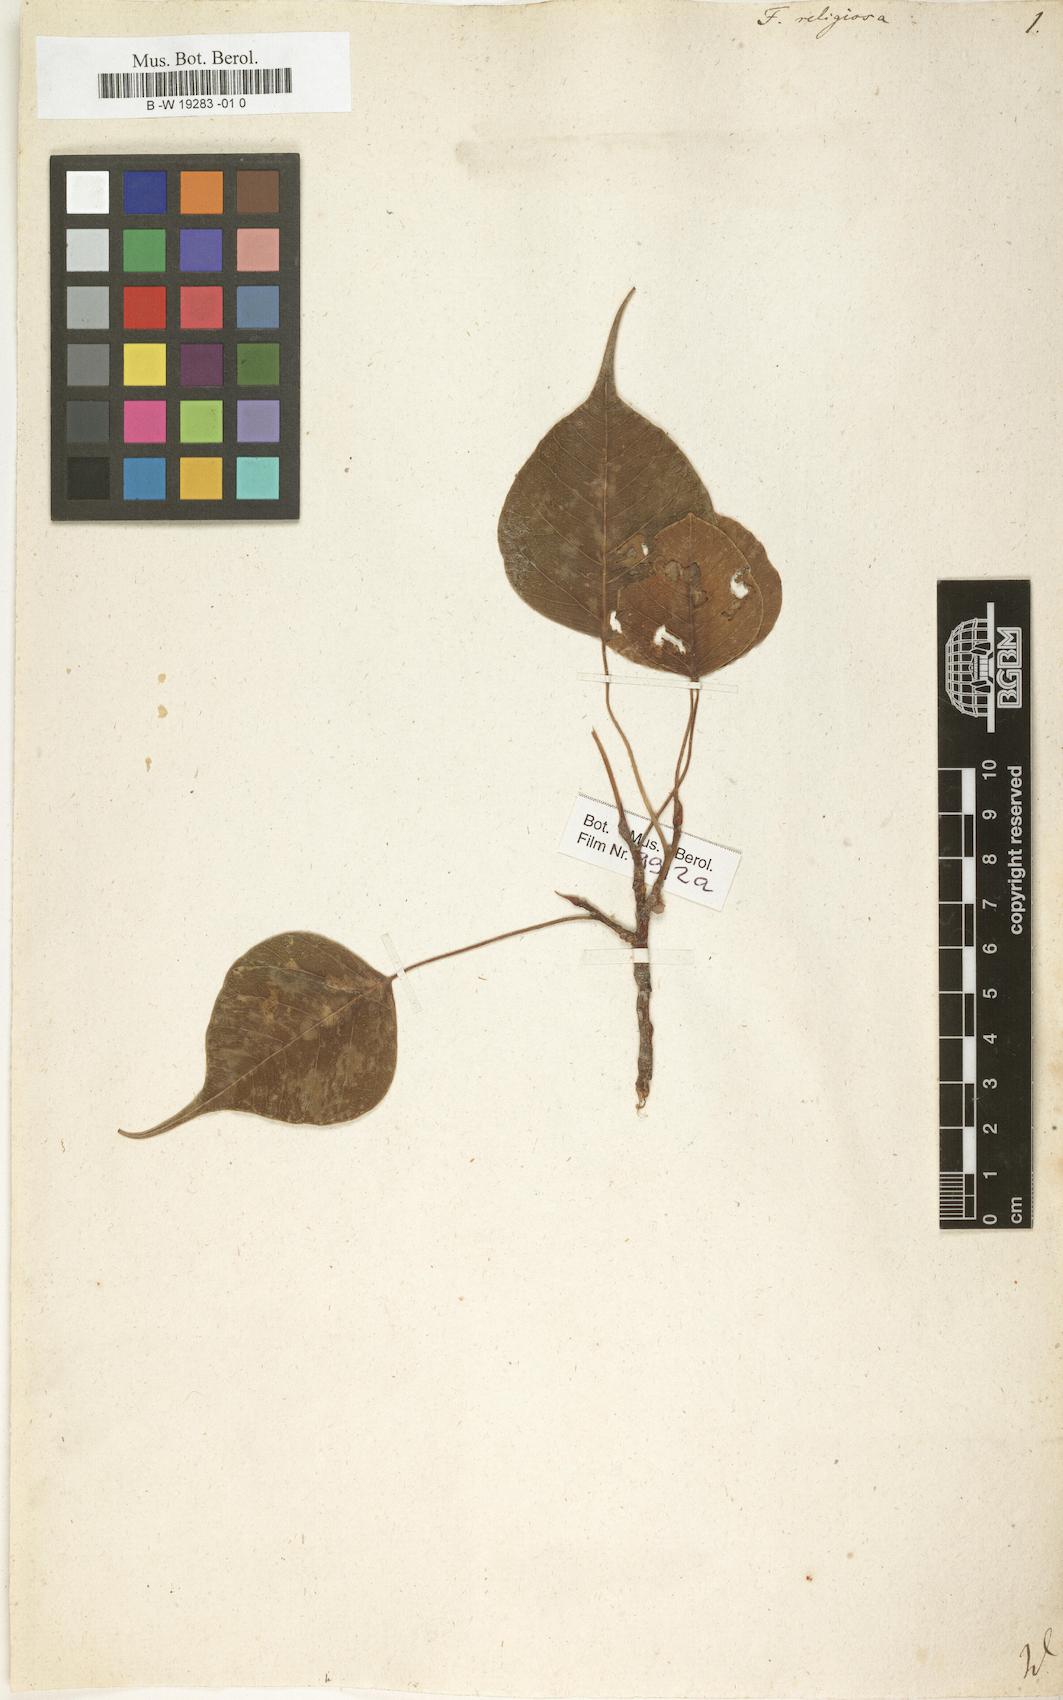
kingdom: Plantae
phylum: Tracheophyta
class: Magnoliopsida
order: Rosales
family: Moraceae
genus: Ficus
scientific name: Ficus religiosa
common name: Bodhi tree
